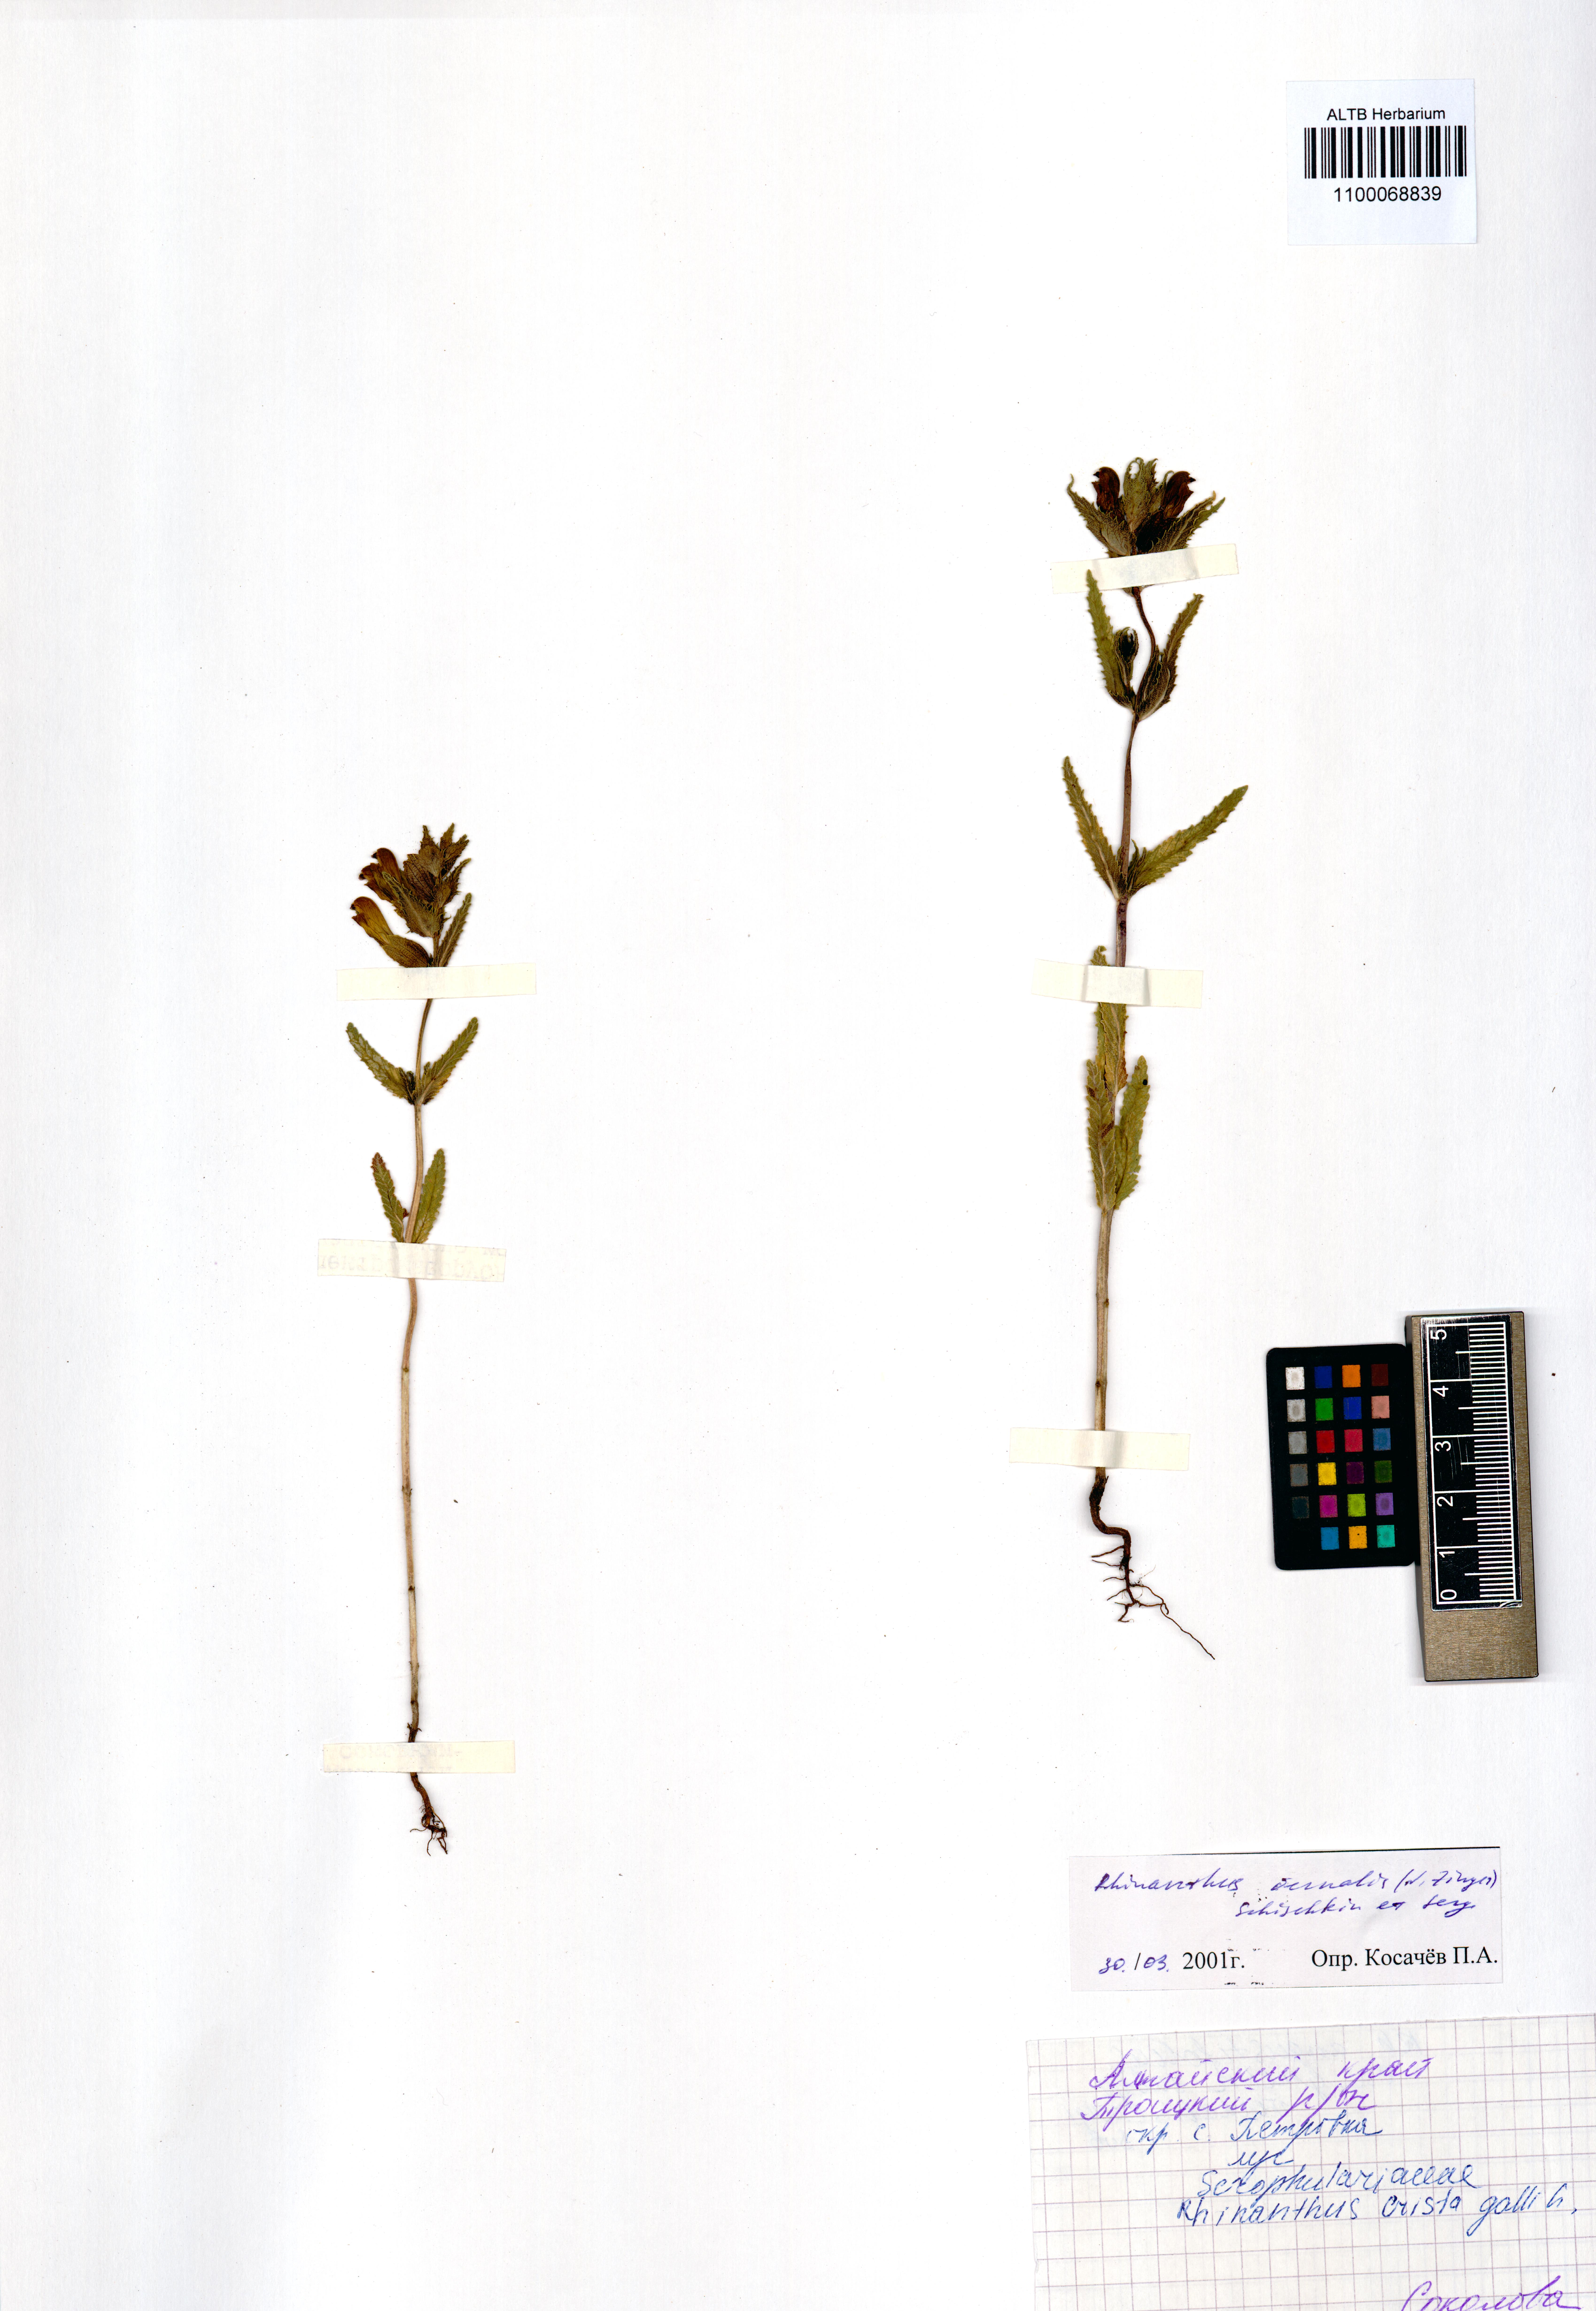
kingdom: Plantae
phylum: Tracheophyta
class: Magnoliopsida
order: Lamiales
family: Orobanchaceae
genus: Rhinanthus
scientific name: Rhinanthus serotinus
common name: Late-flowering yellow rattle
